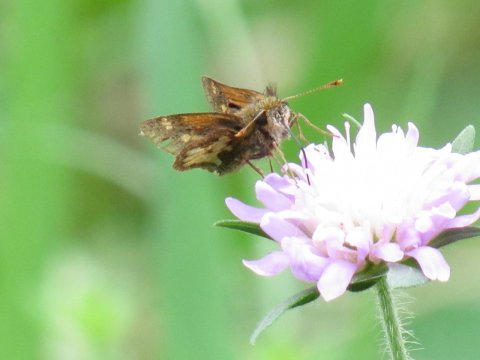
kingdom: Animalia
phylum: Arthropoda
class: Insecta
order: Lepidoptera
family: Hesperiidae
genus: Polites
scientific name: Polites coras
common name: Peck's Skipper
